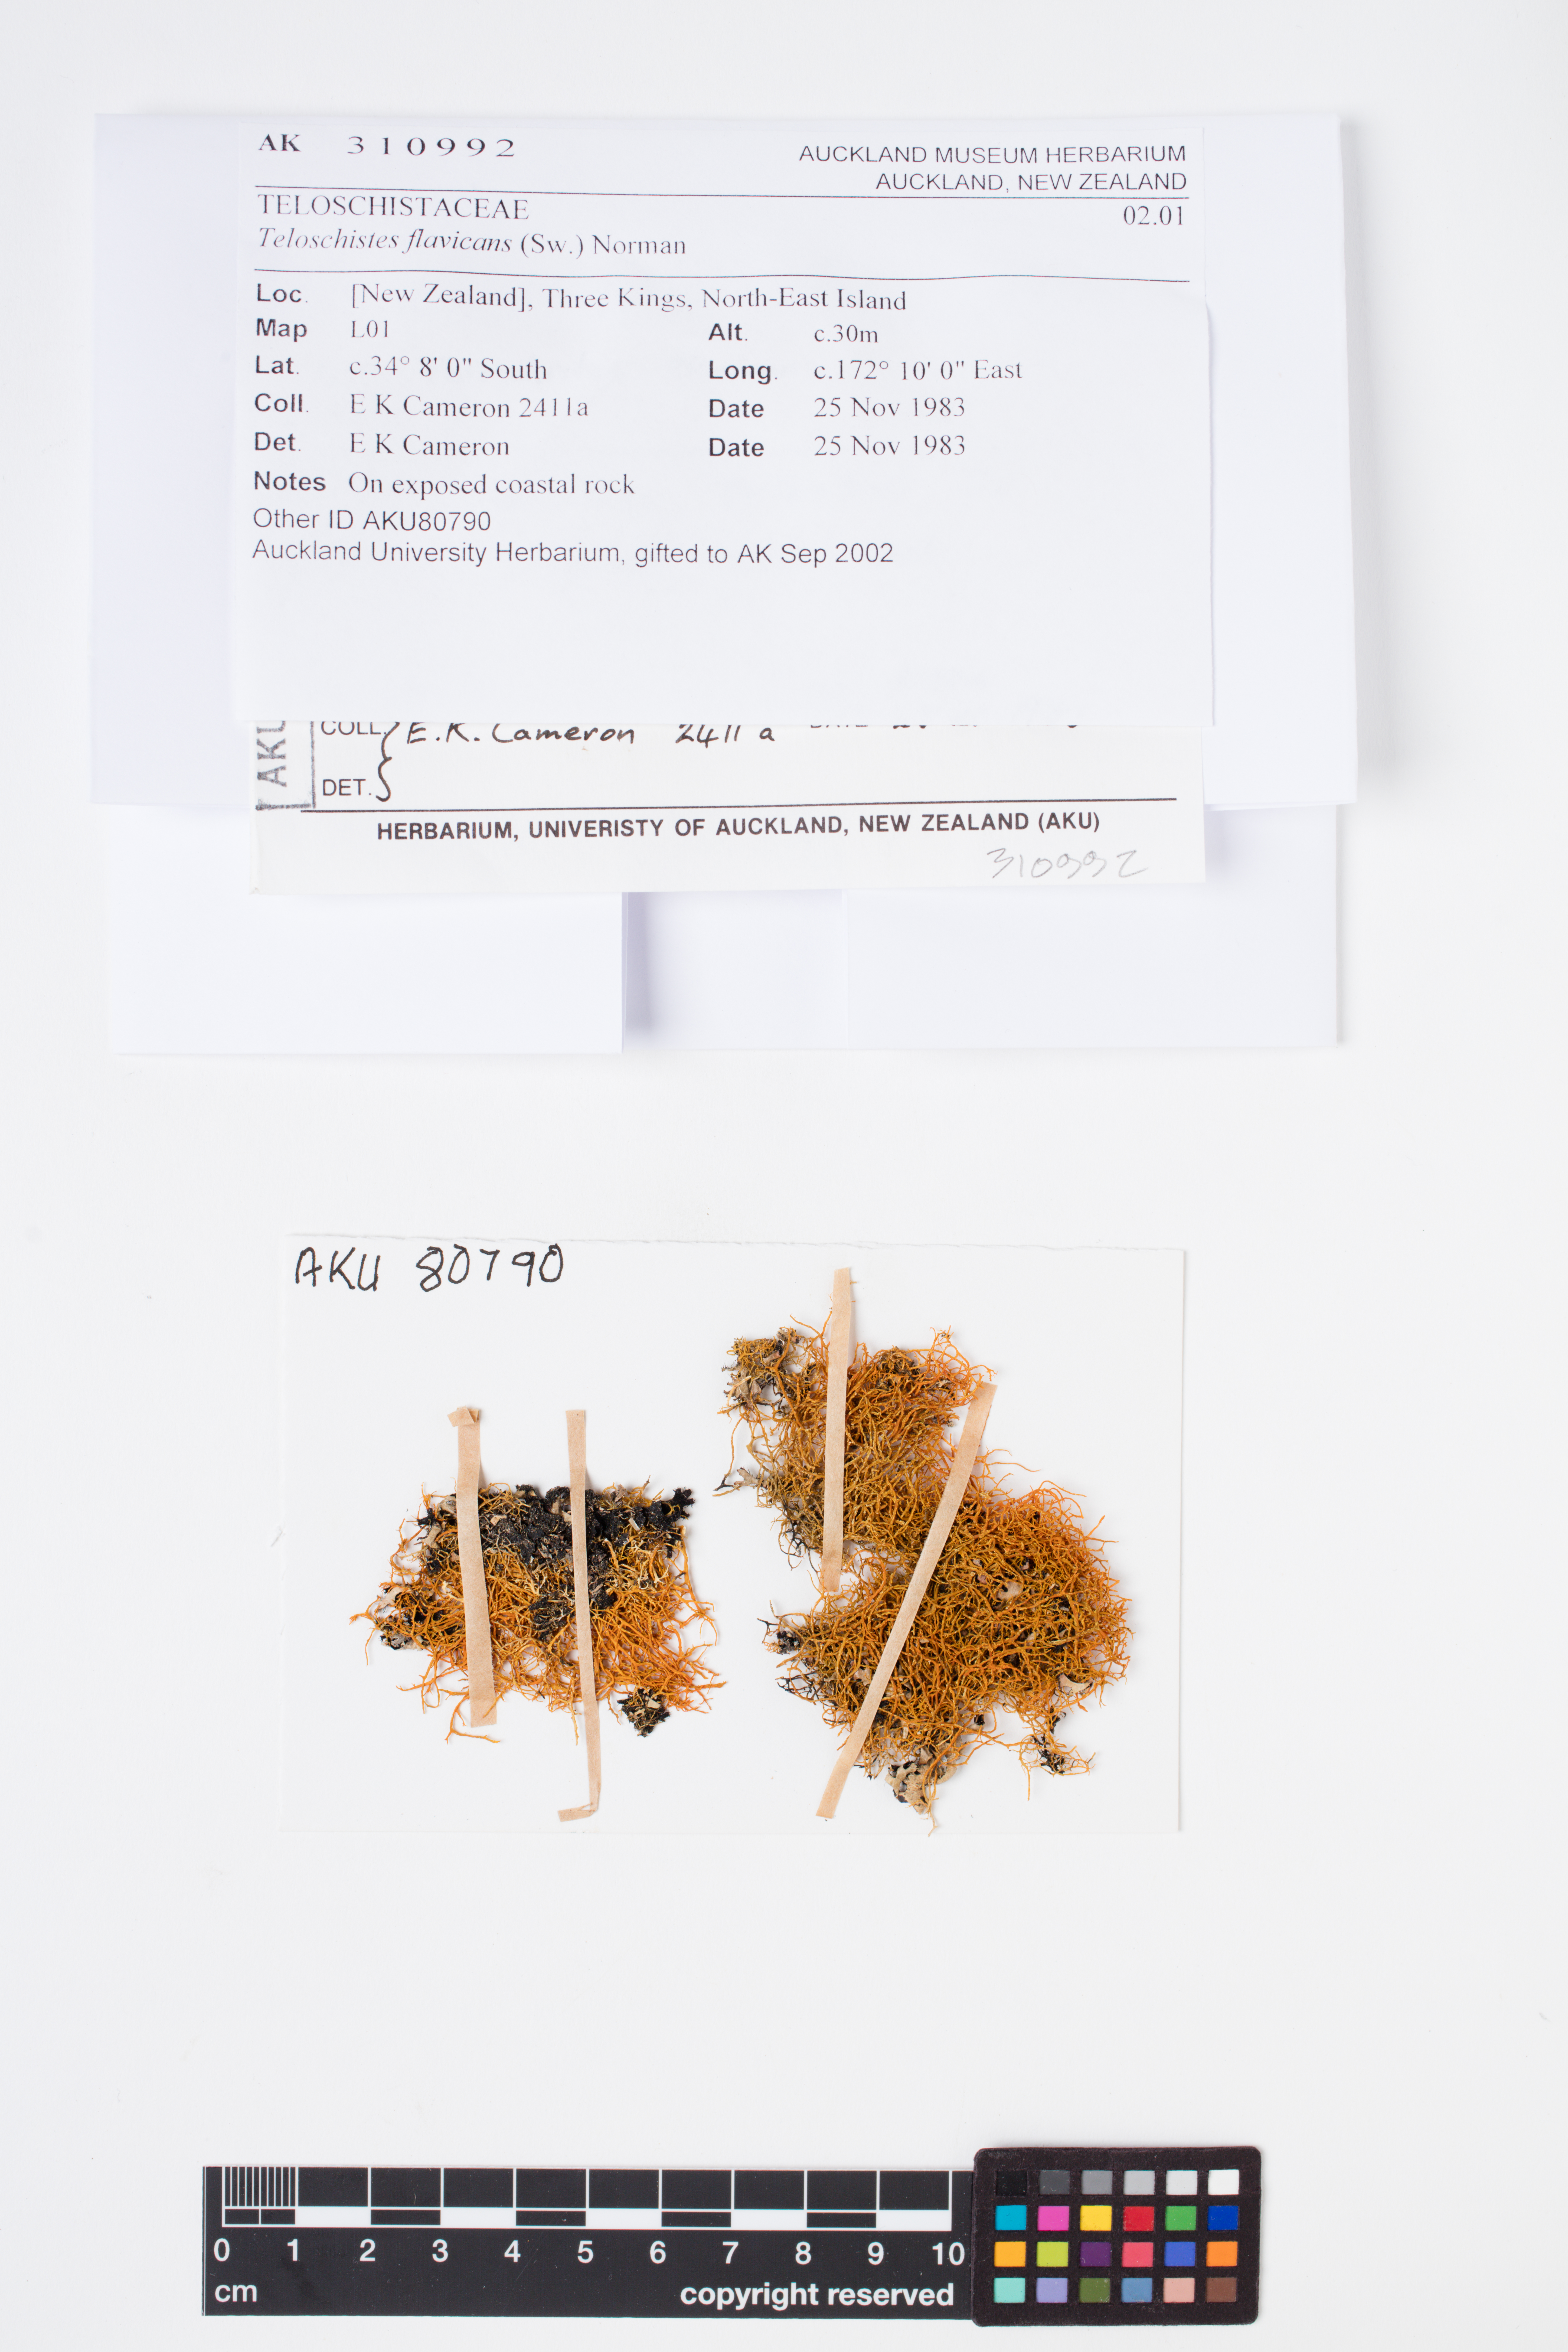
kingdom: Fungi
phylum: Ascomycota
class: Lecanoromycetes
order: Teloschistales
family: Teloschistaceae
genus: Teloschistes
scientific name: Teloschistes flavicans
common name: Golden hair-lichen
